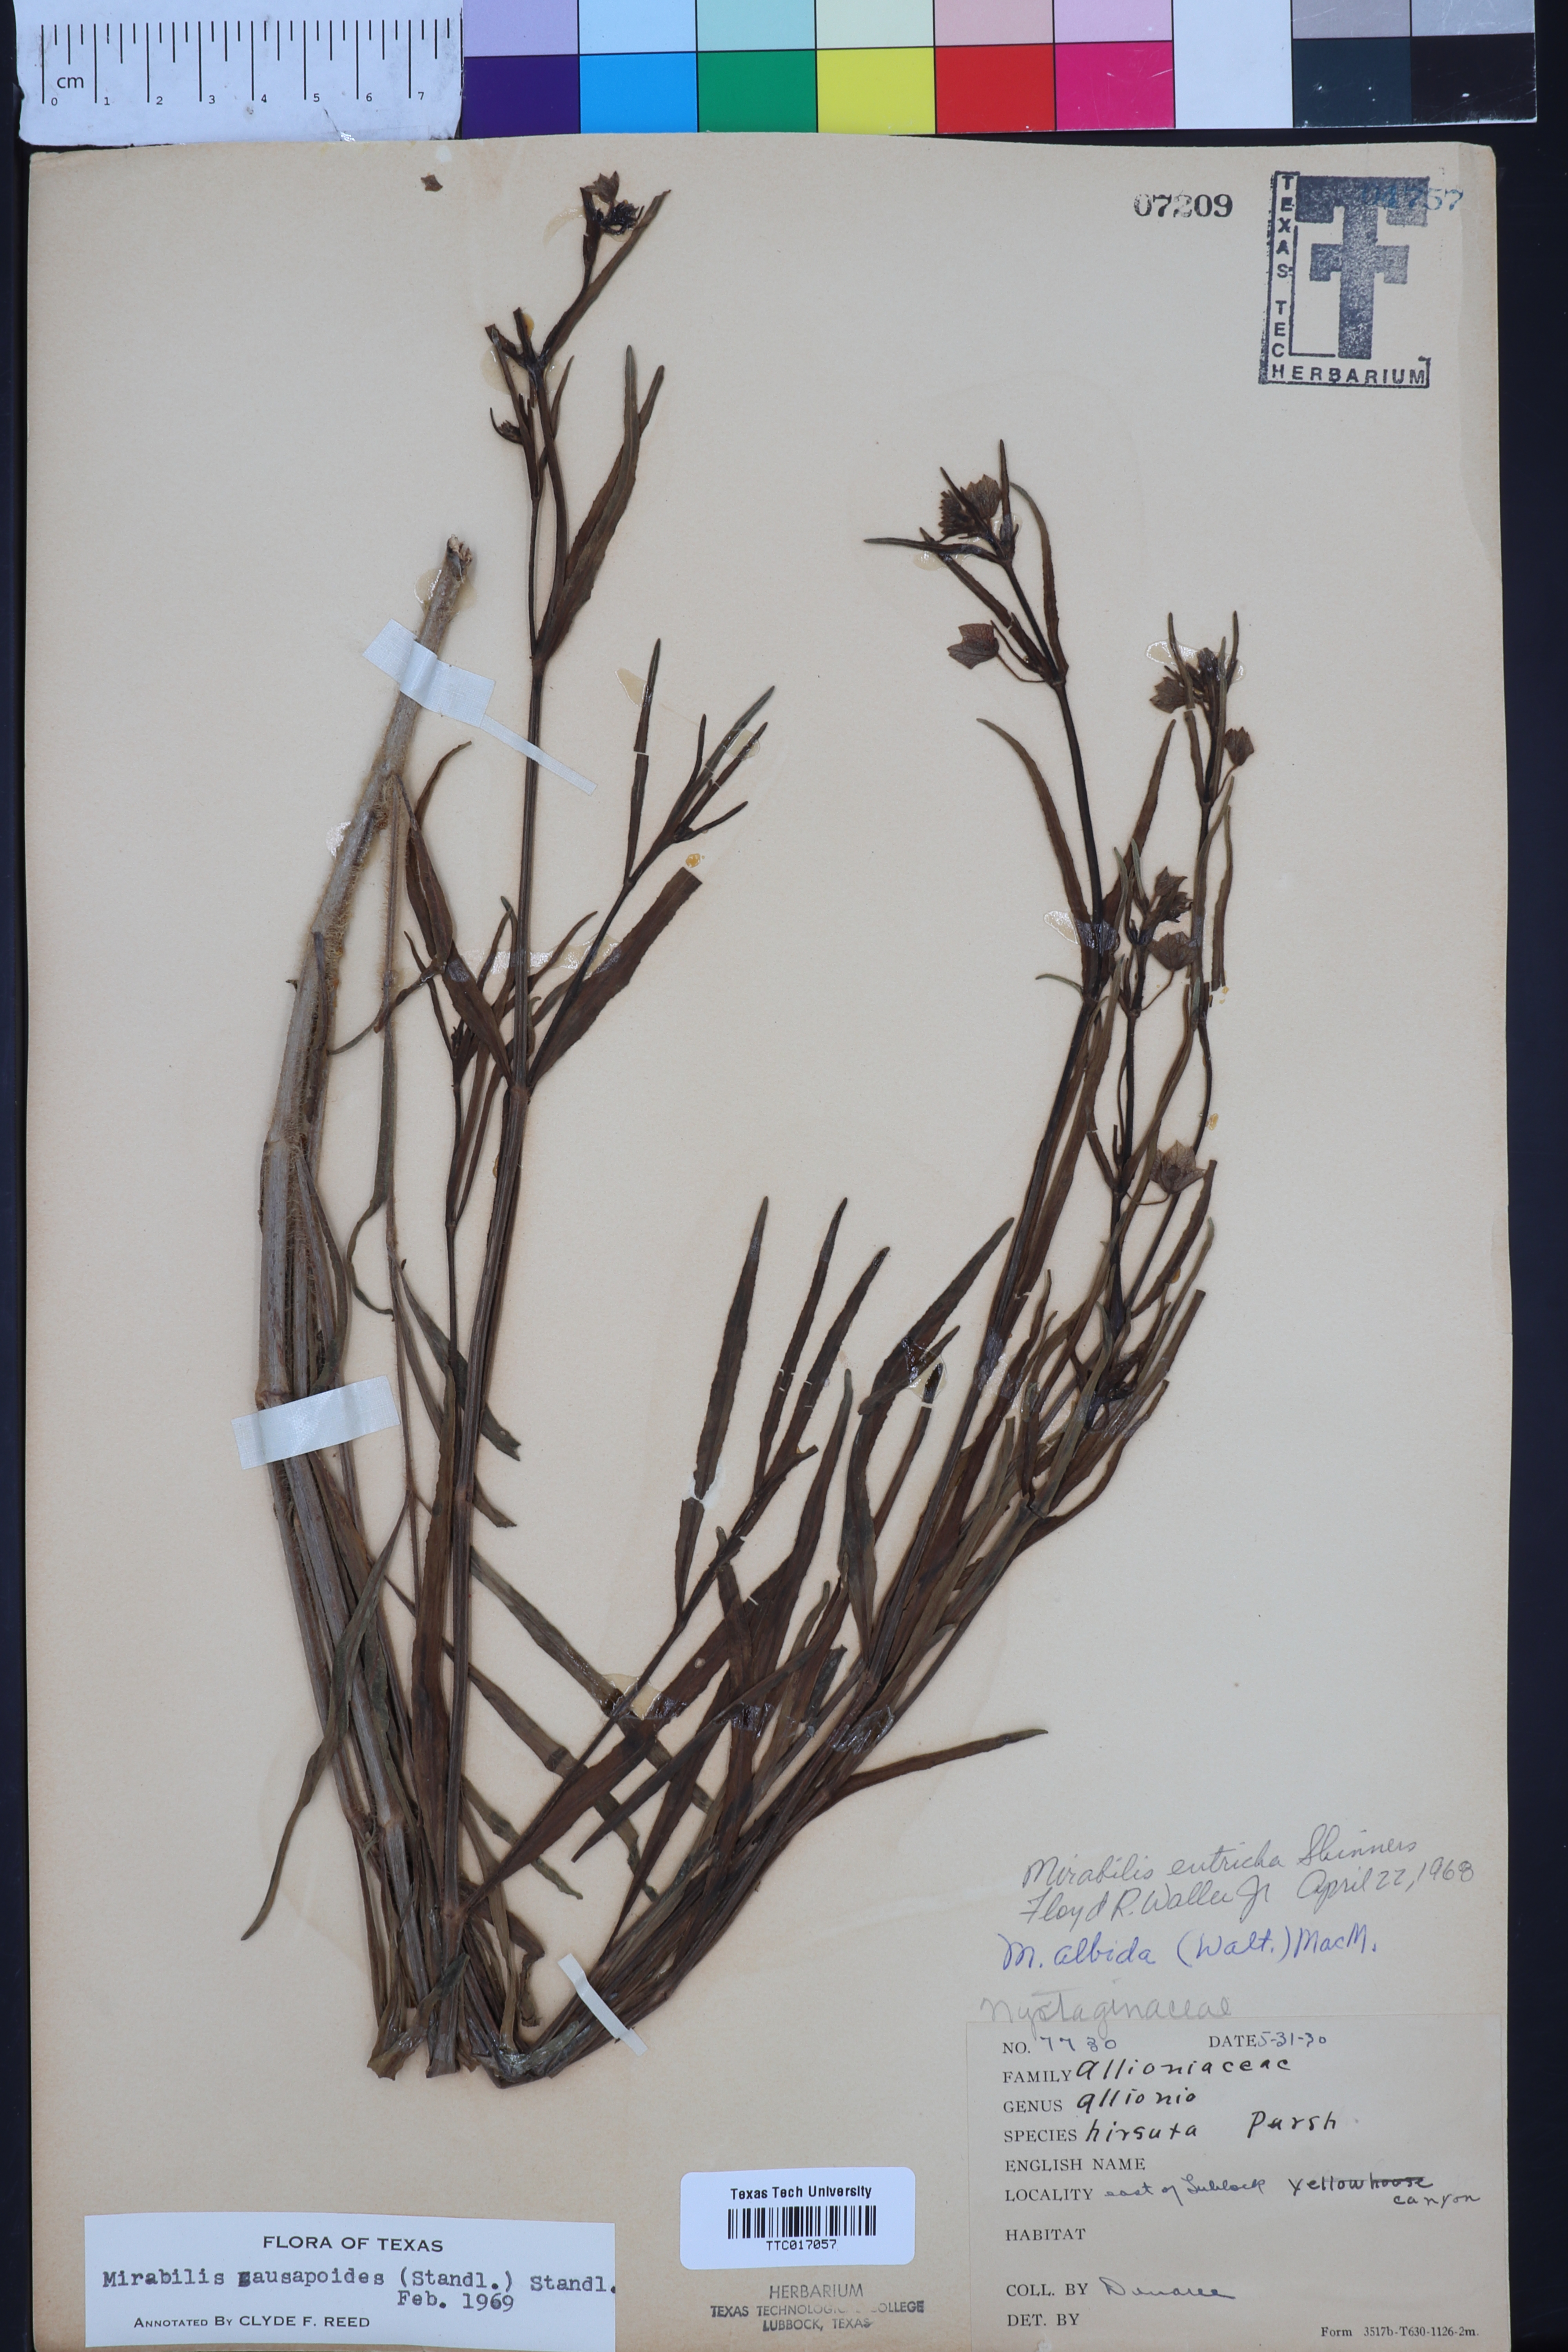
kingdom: Plantae
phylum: Tracheophyta
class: Magnoliopsida
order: Caryophyllales
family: Nyctaginaceae
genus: Mirabilis
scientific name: Mirabilis linearis
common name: Linear-leaved four-o'clock
